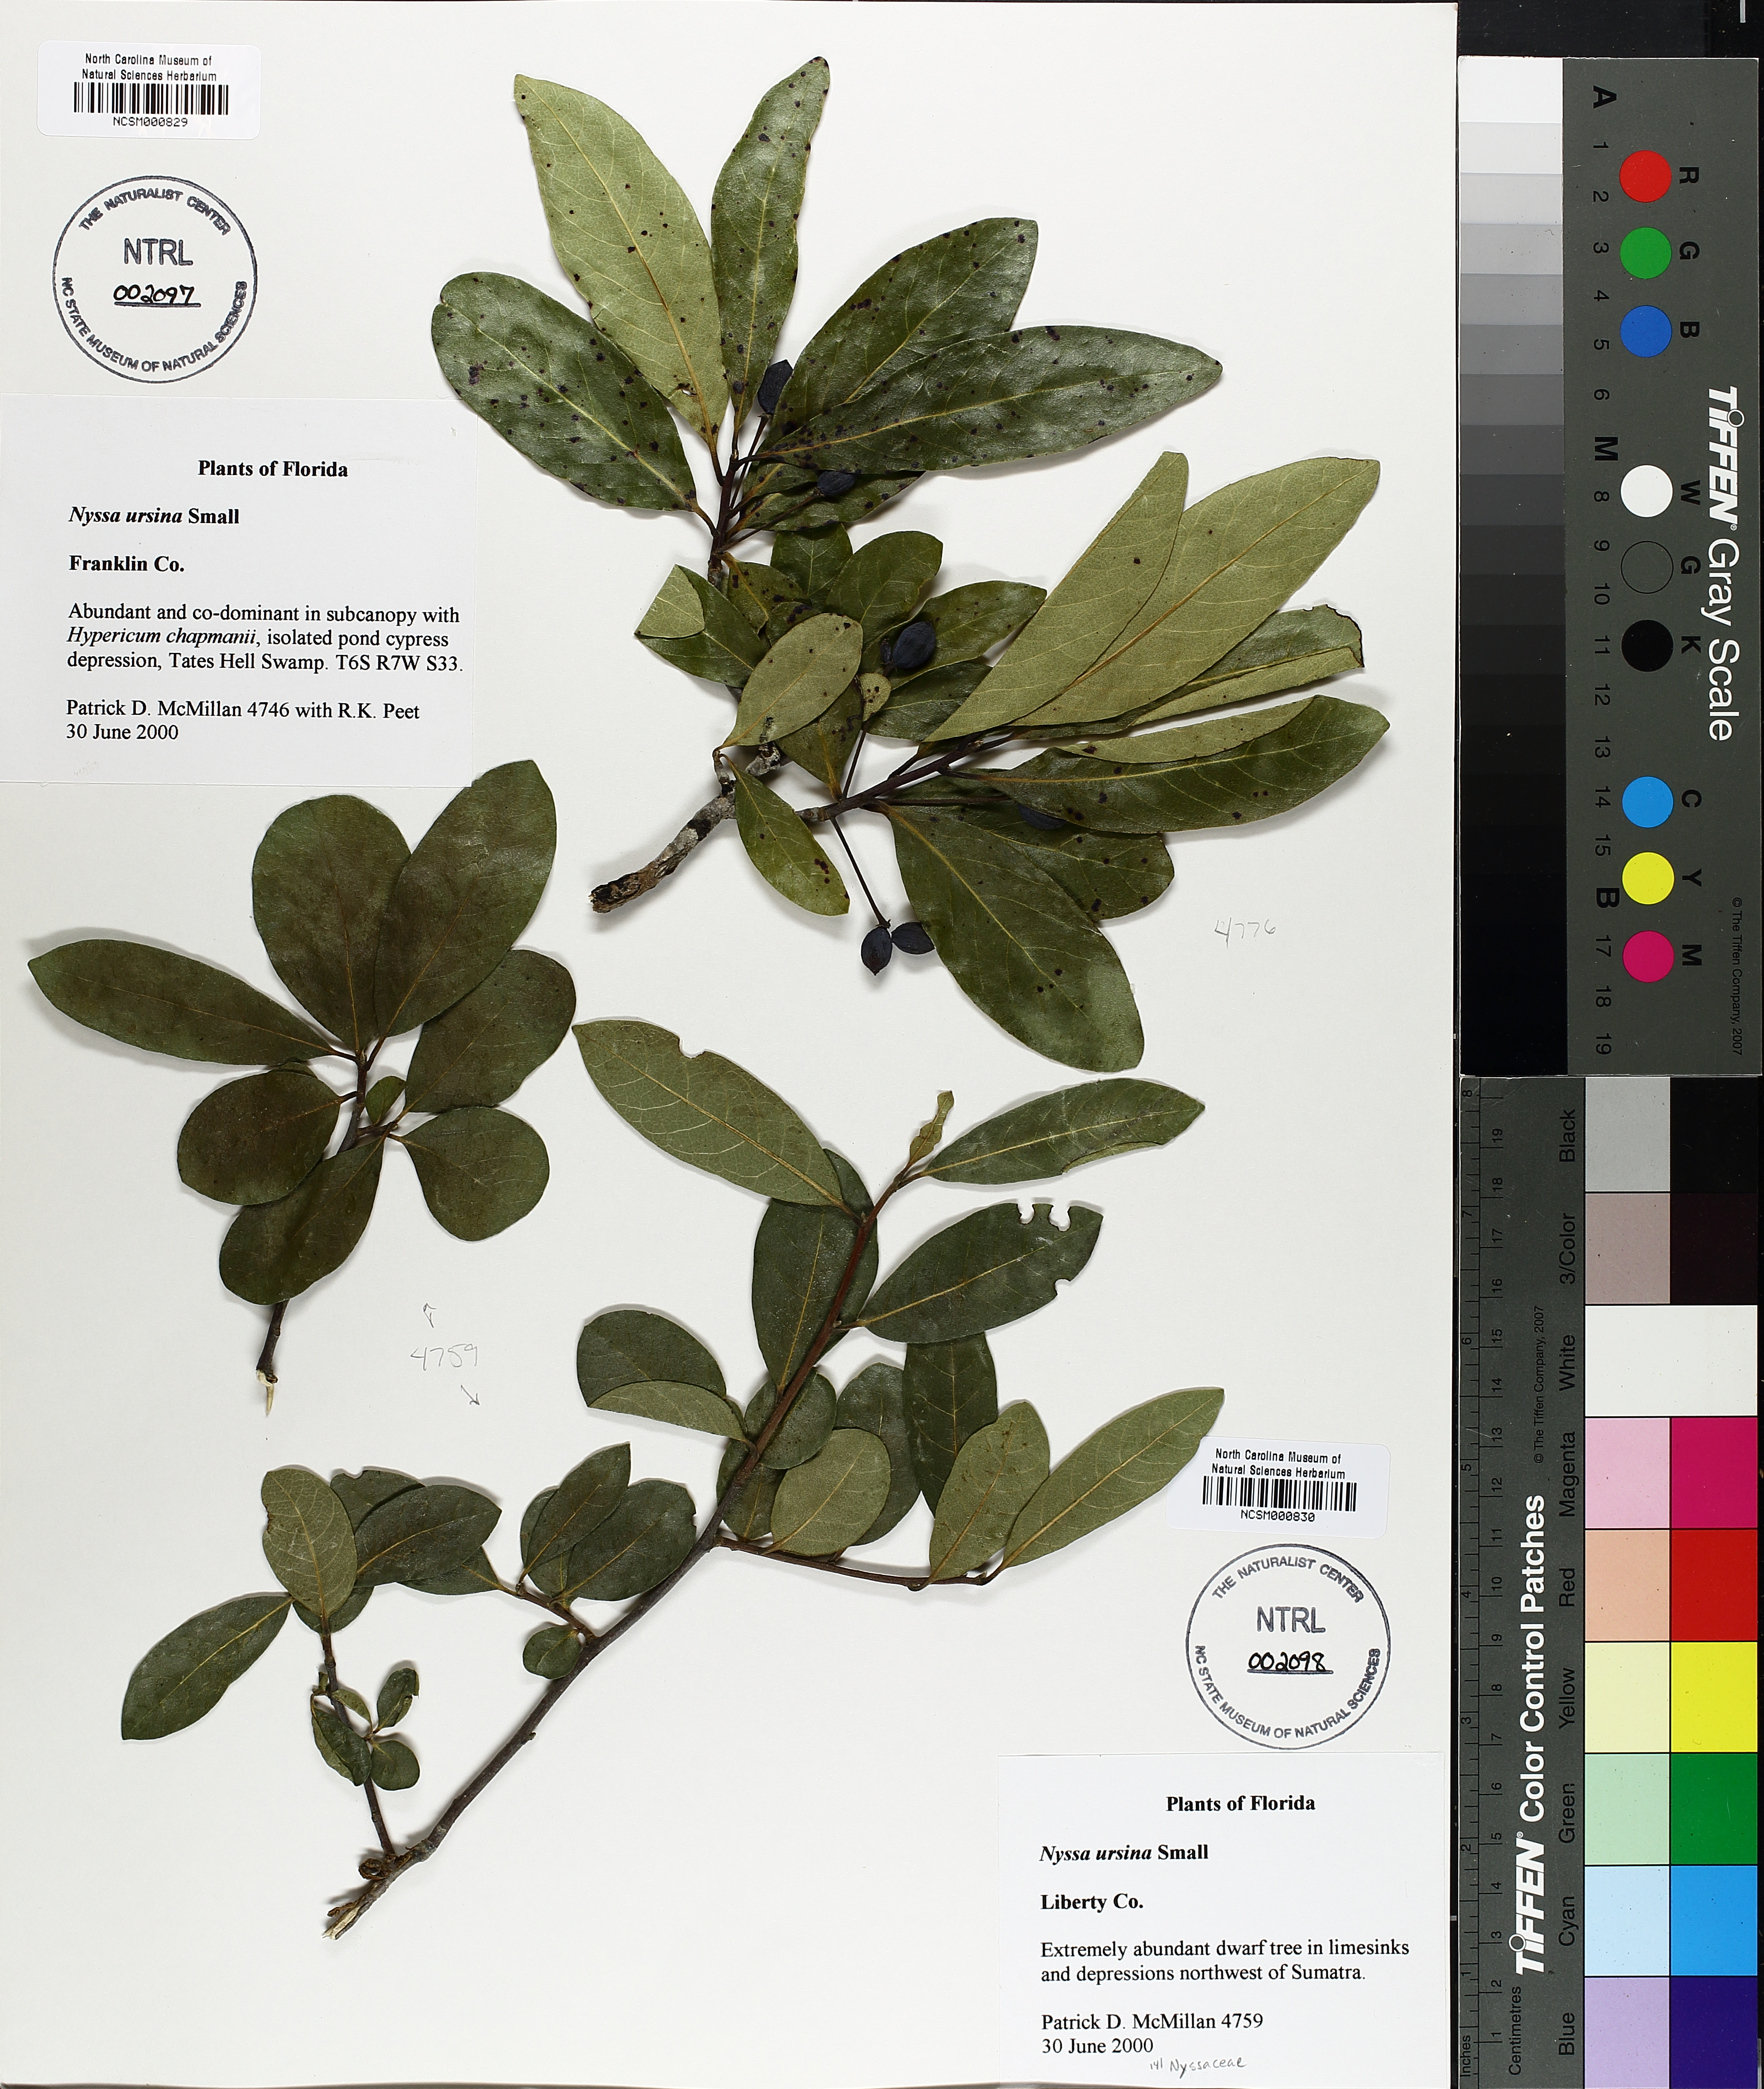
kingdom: Plantae
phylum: Tracheophyta
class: Magnoliopsida
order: Cornales
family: Nyssaceae
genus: Nyssa
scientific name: Nyssa biflora
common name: Swamp blackgum
